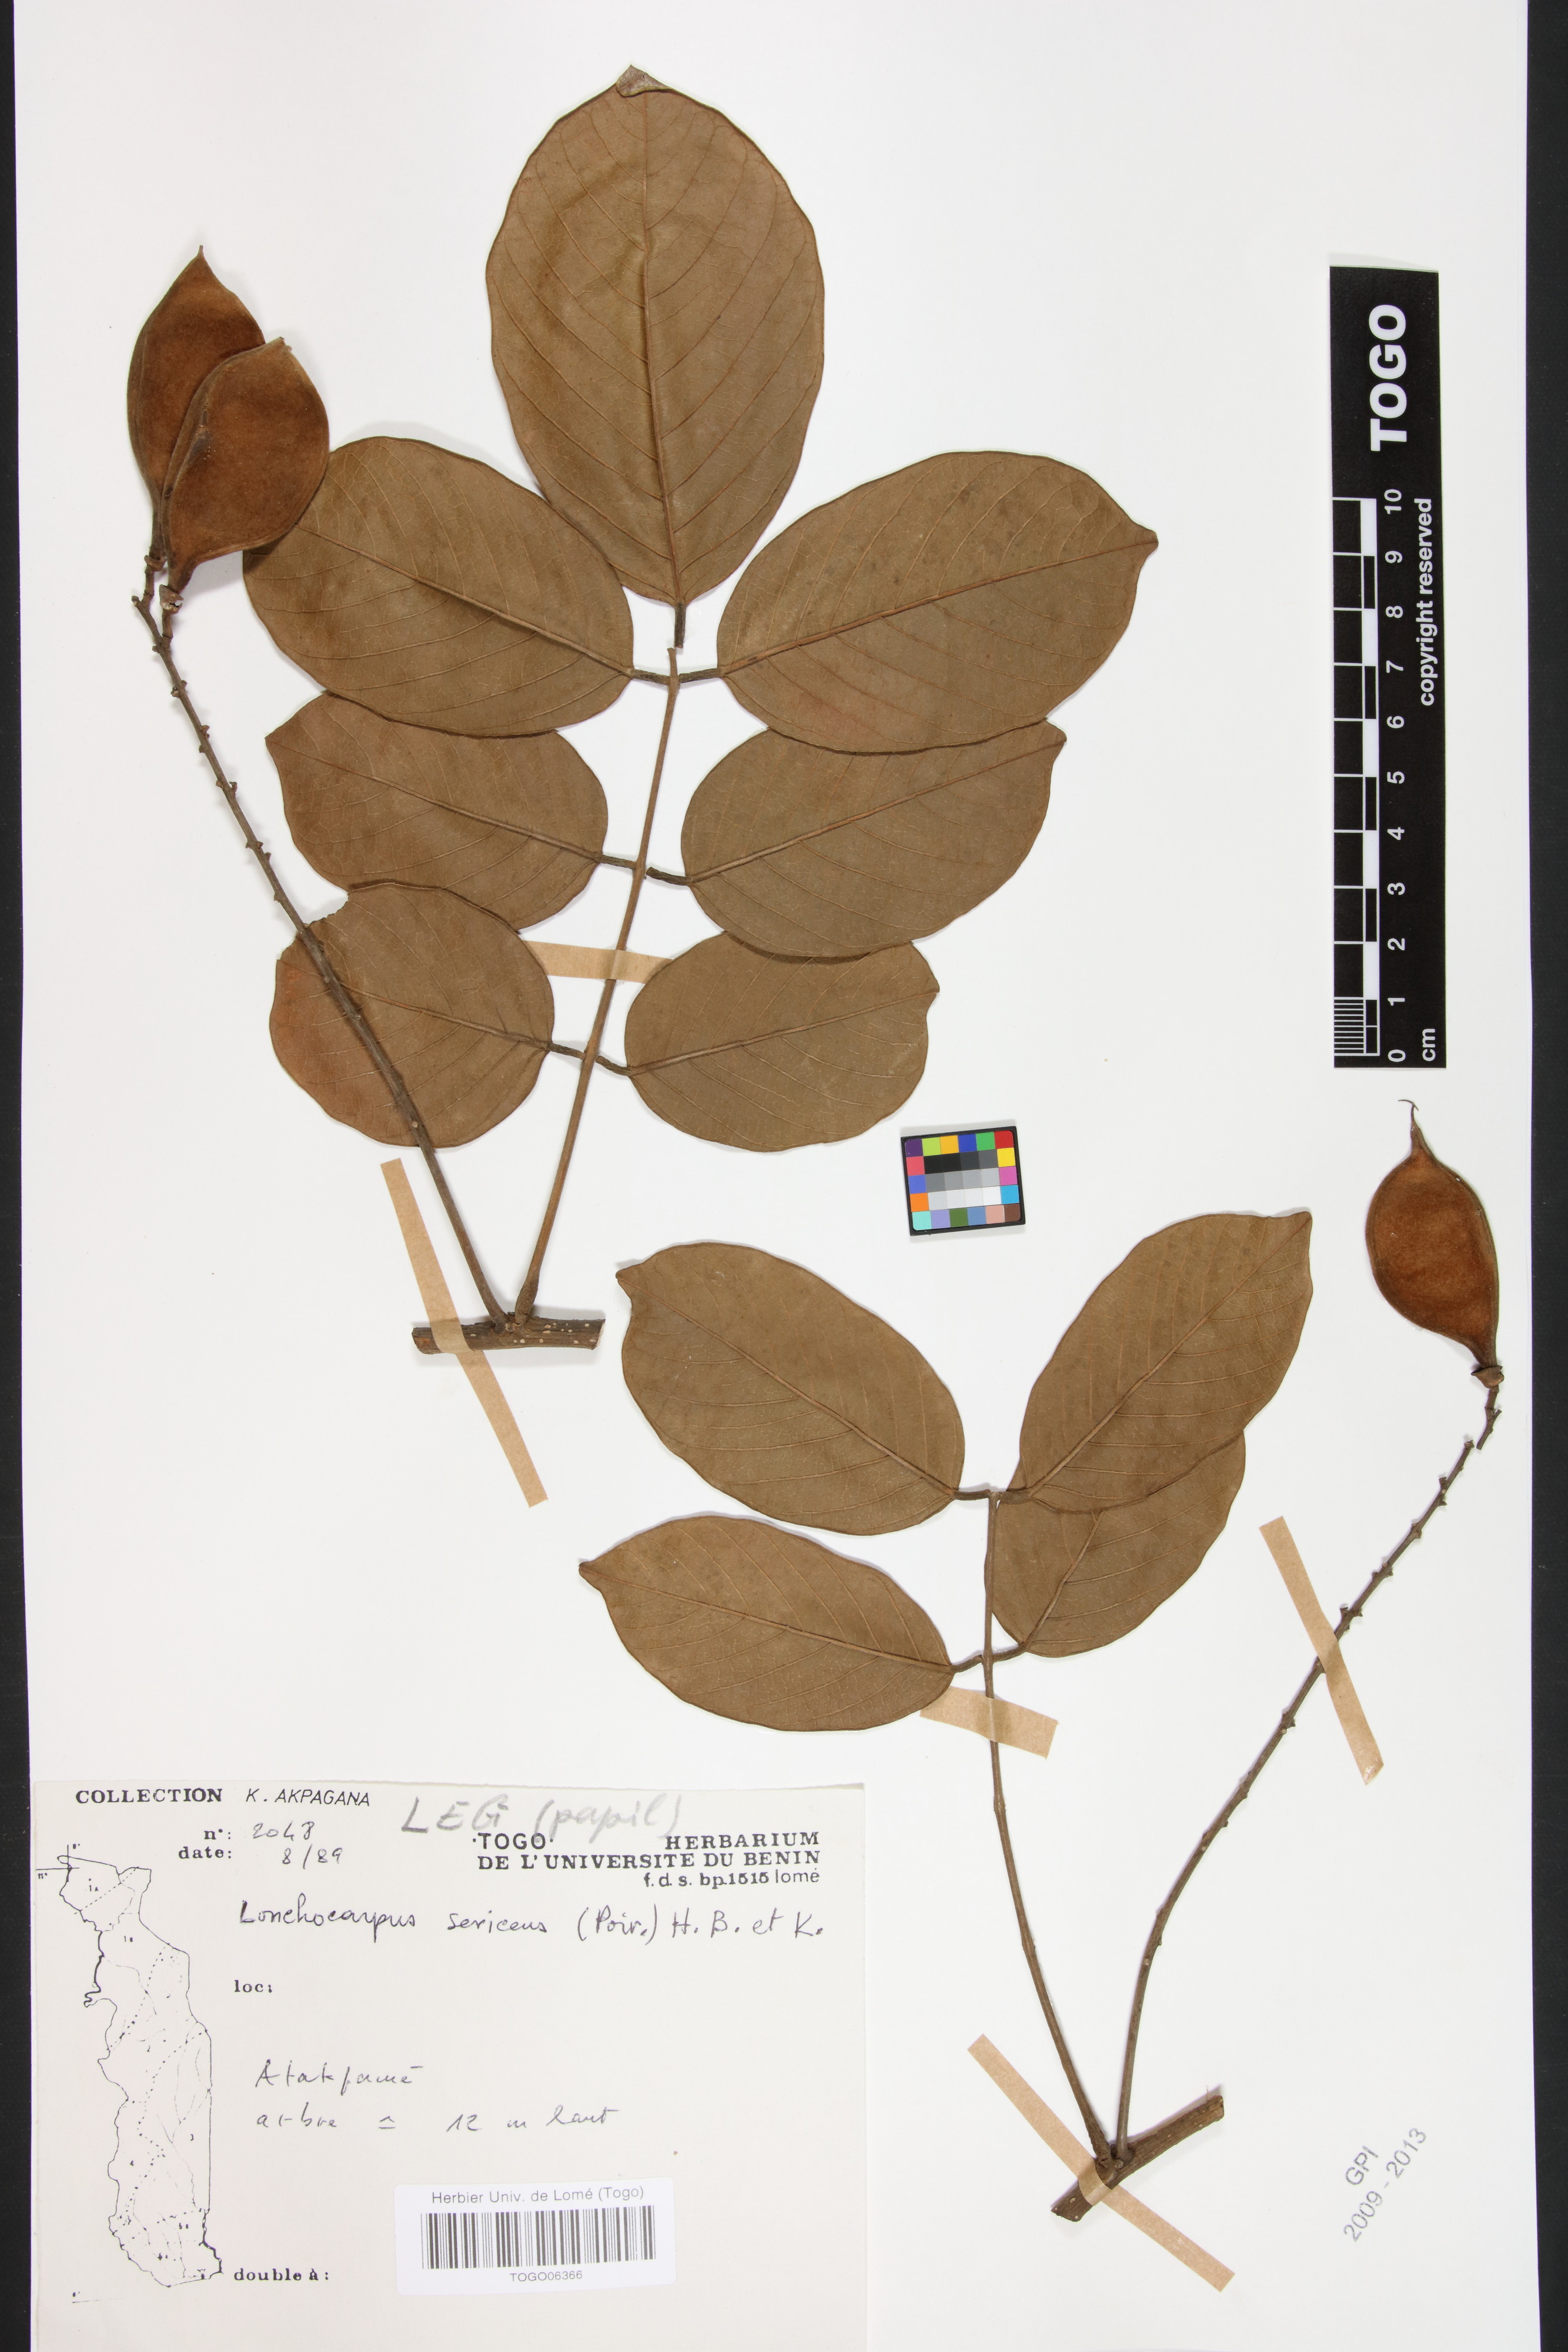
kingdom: Plantae
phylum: Tracheophyta
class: Magnoliopsida
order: Fabales
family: Fabaceae
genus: Lonchocarpus
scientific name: Lonchocarpus sericeus
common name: Savonette
